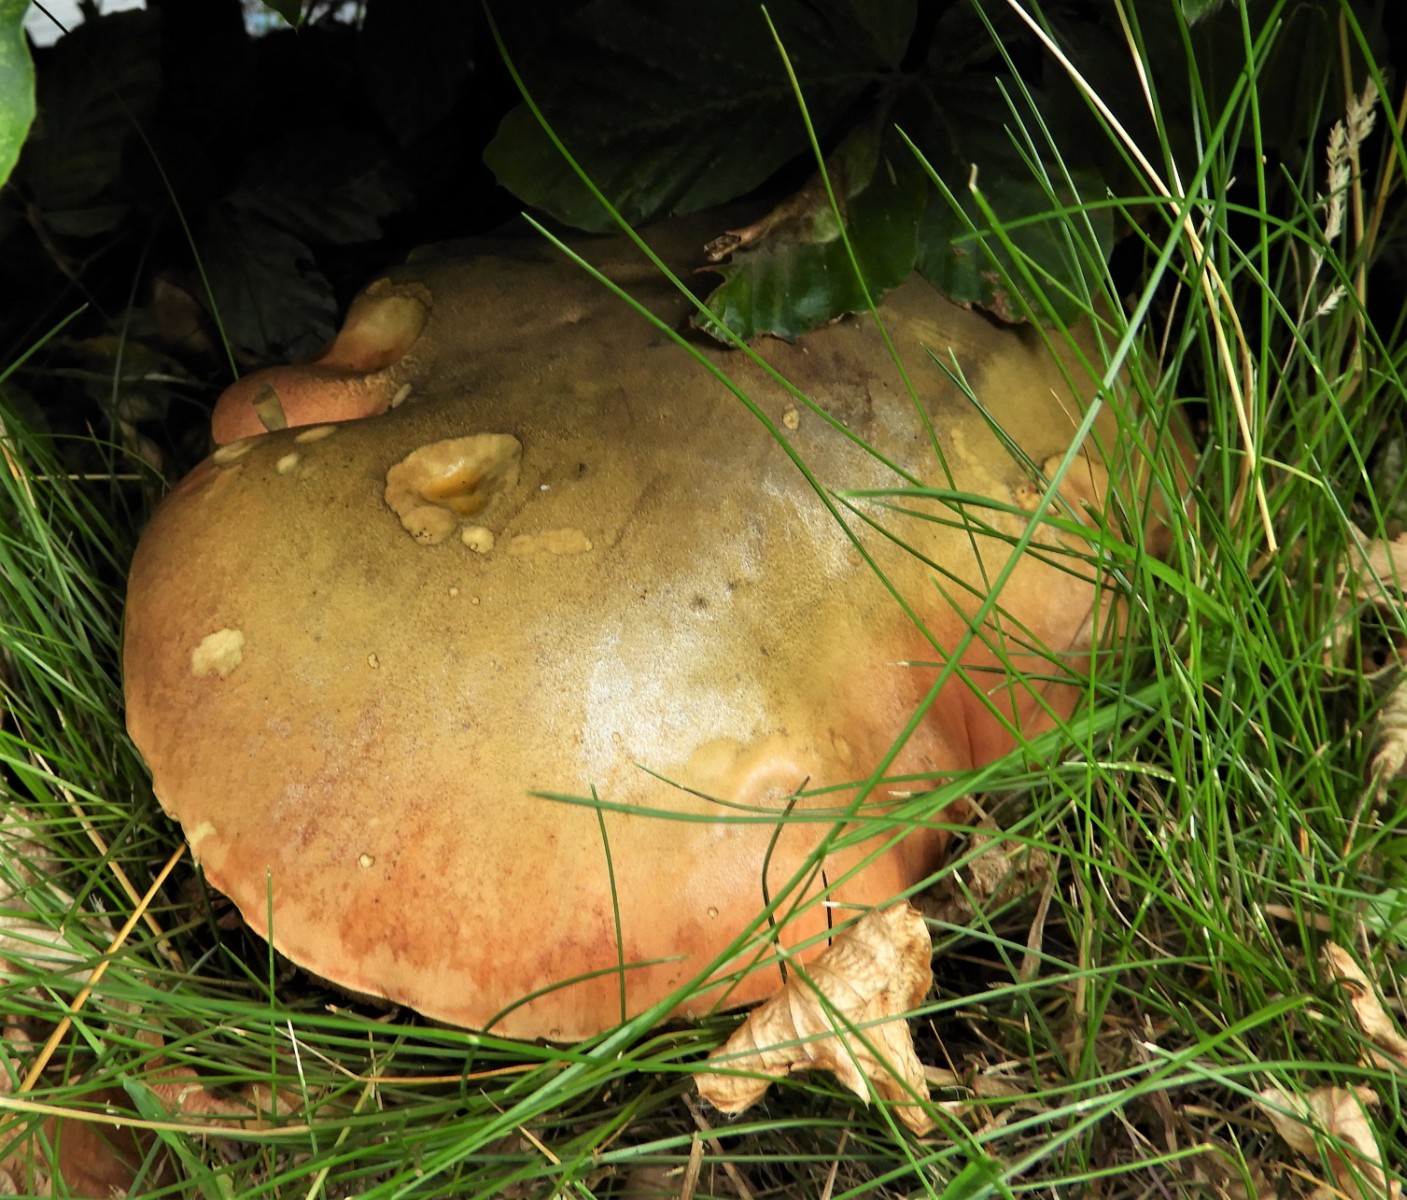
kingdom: Fungi
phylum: Basidiomycota
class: Agaricomycetes
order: Boletales
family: Boletaceae
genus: Suillellus
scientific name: Suillellus luridus
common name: netstokket indigorørhat
